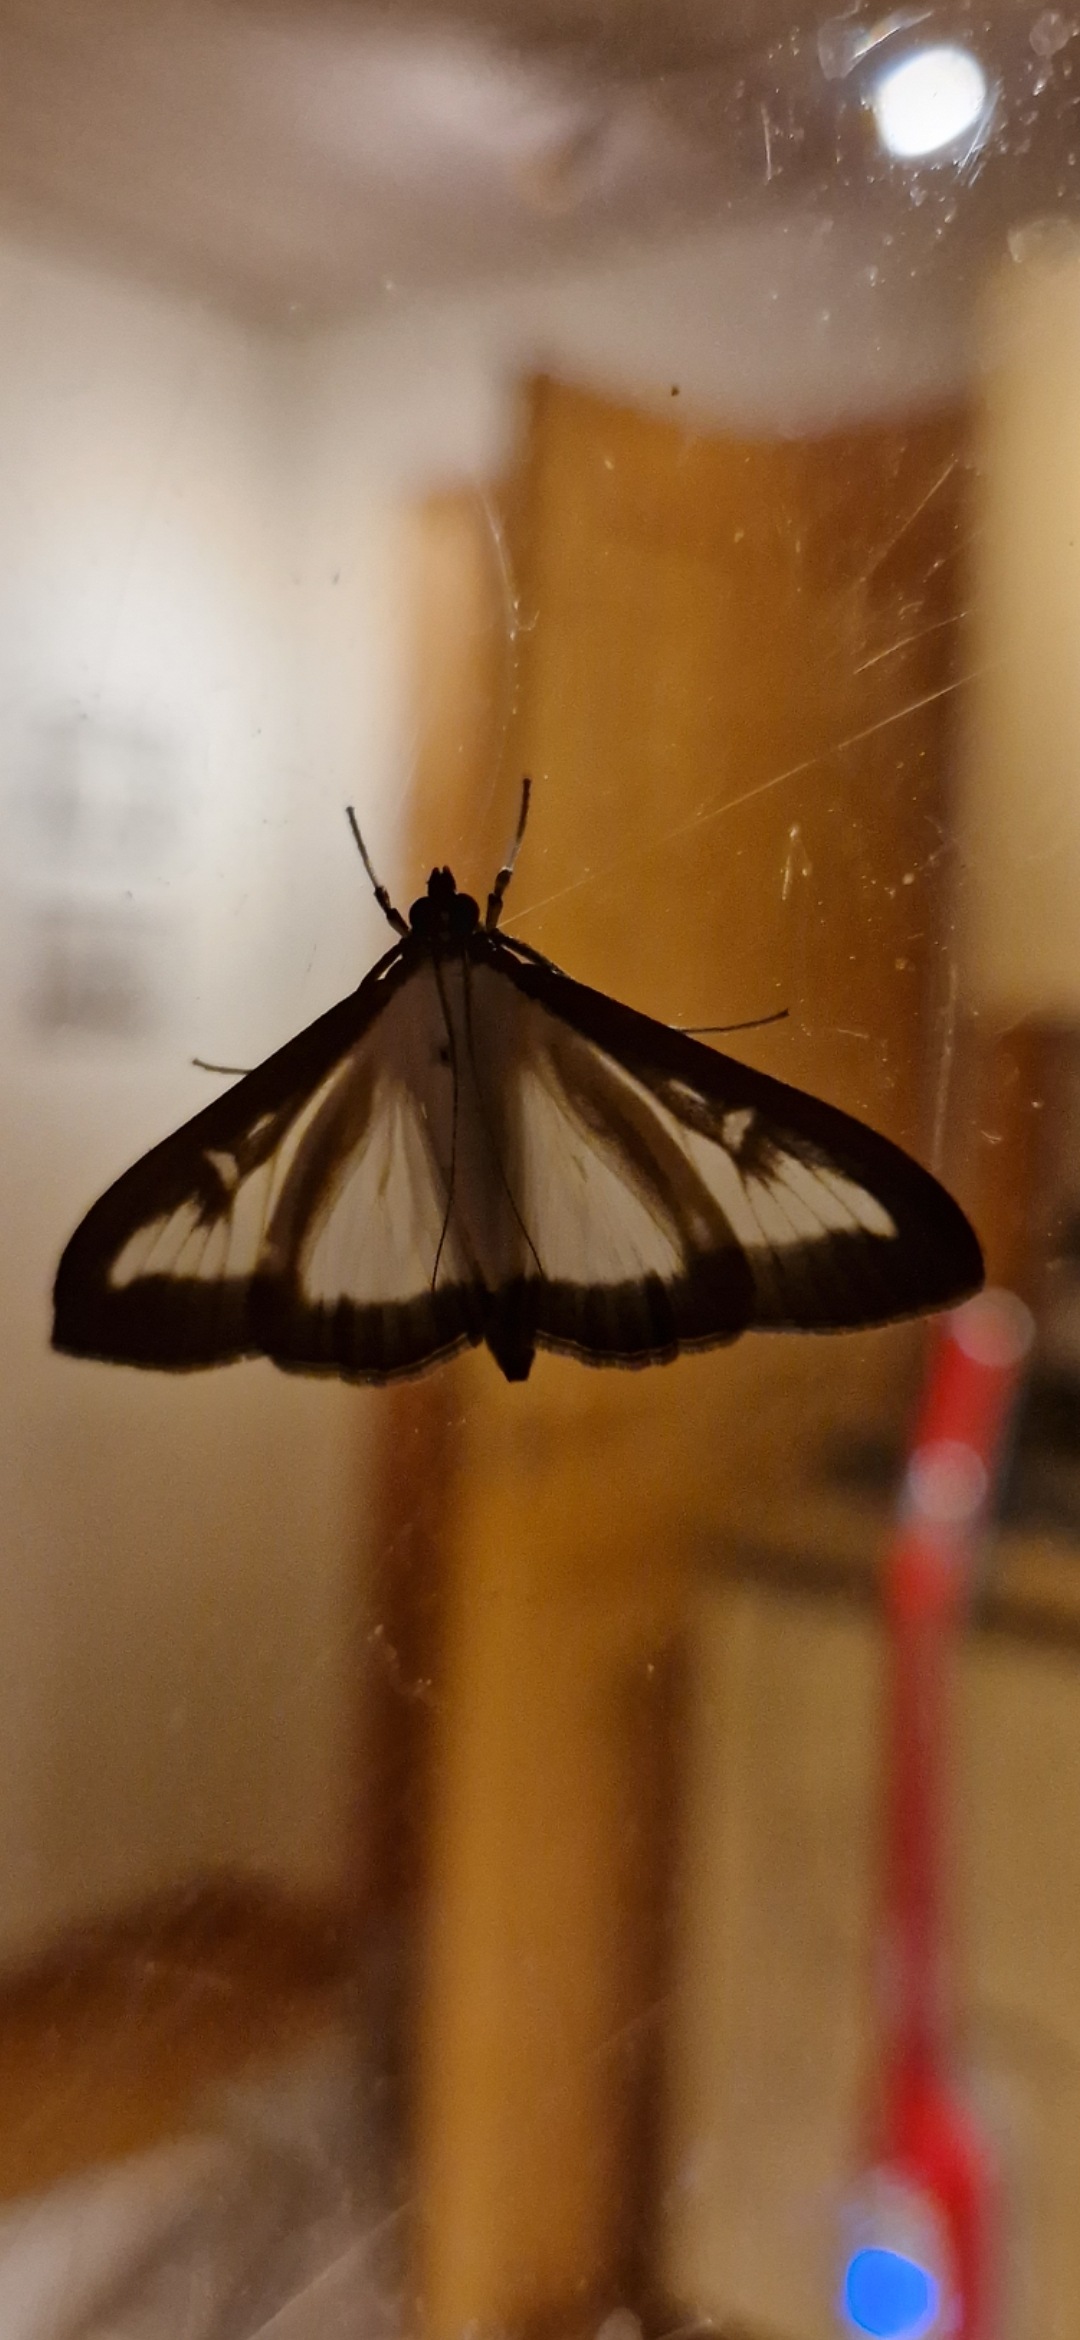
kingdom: Animalia
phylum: Arthropoda
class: Insecta
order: Lepidoptera
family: Crambidae
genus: Cydalima
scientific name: Cydalima perspectalis
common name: Buksbomhalvmøl
